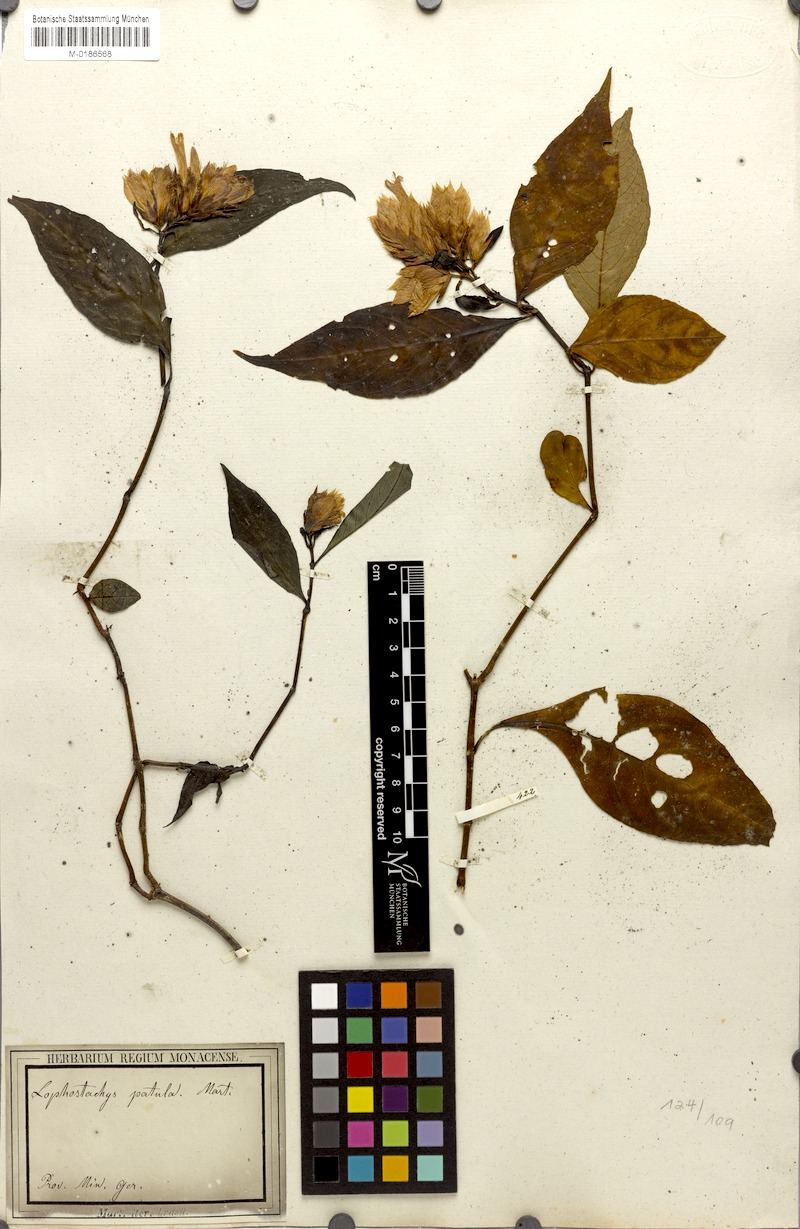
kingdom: Plantae
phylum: Tracheophyta
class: Magnoliopsida
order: Lamiales
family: Acanthaceae
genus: Lepidagathis
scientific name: Lepidagathis laxifolia
